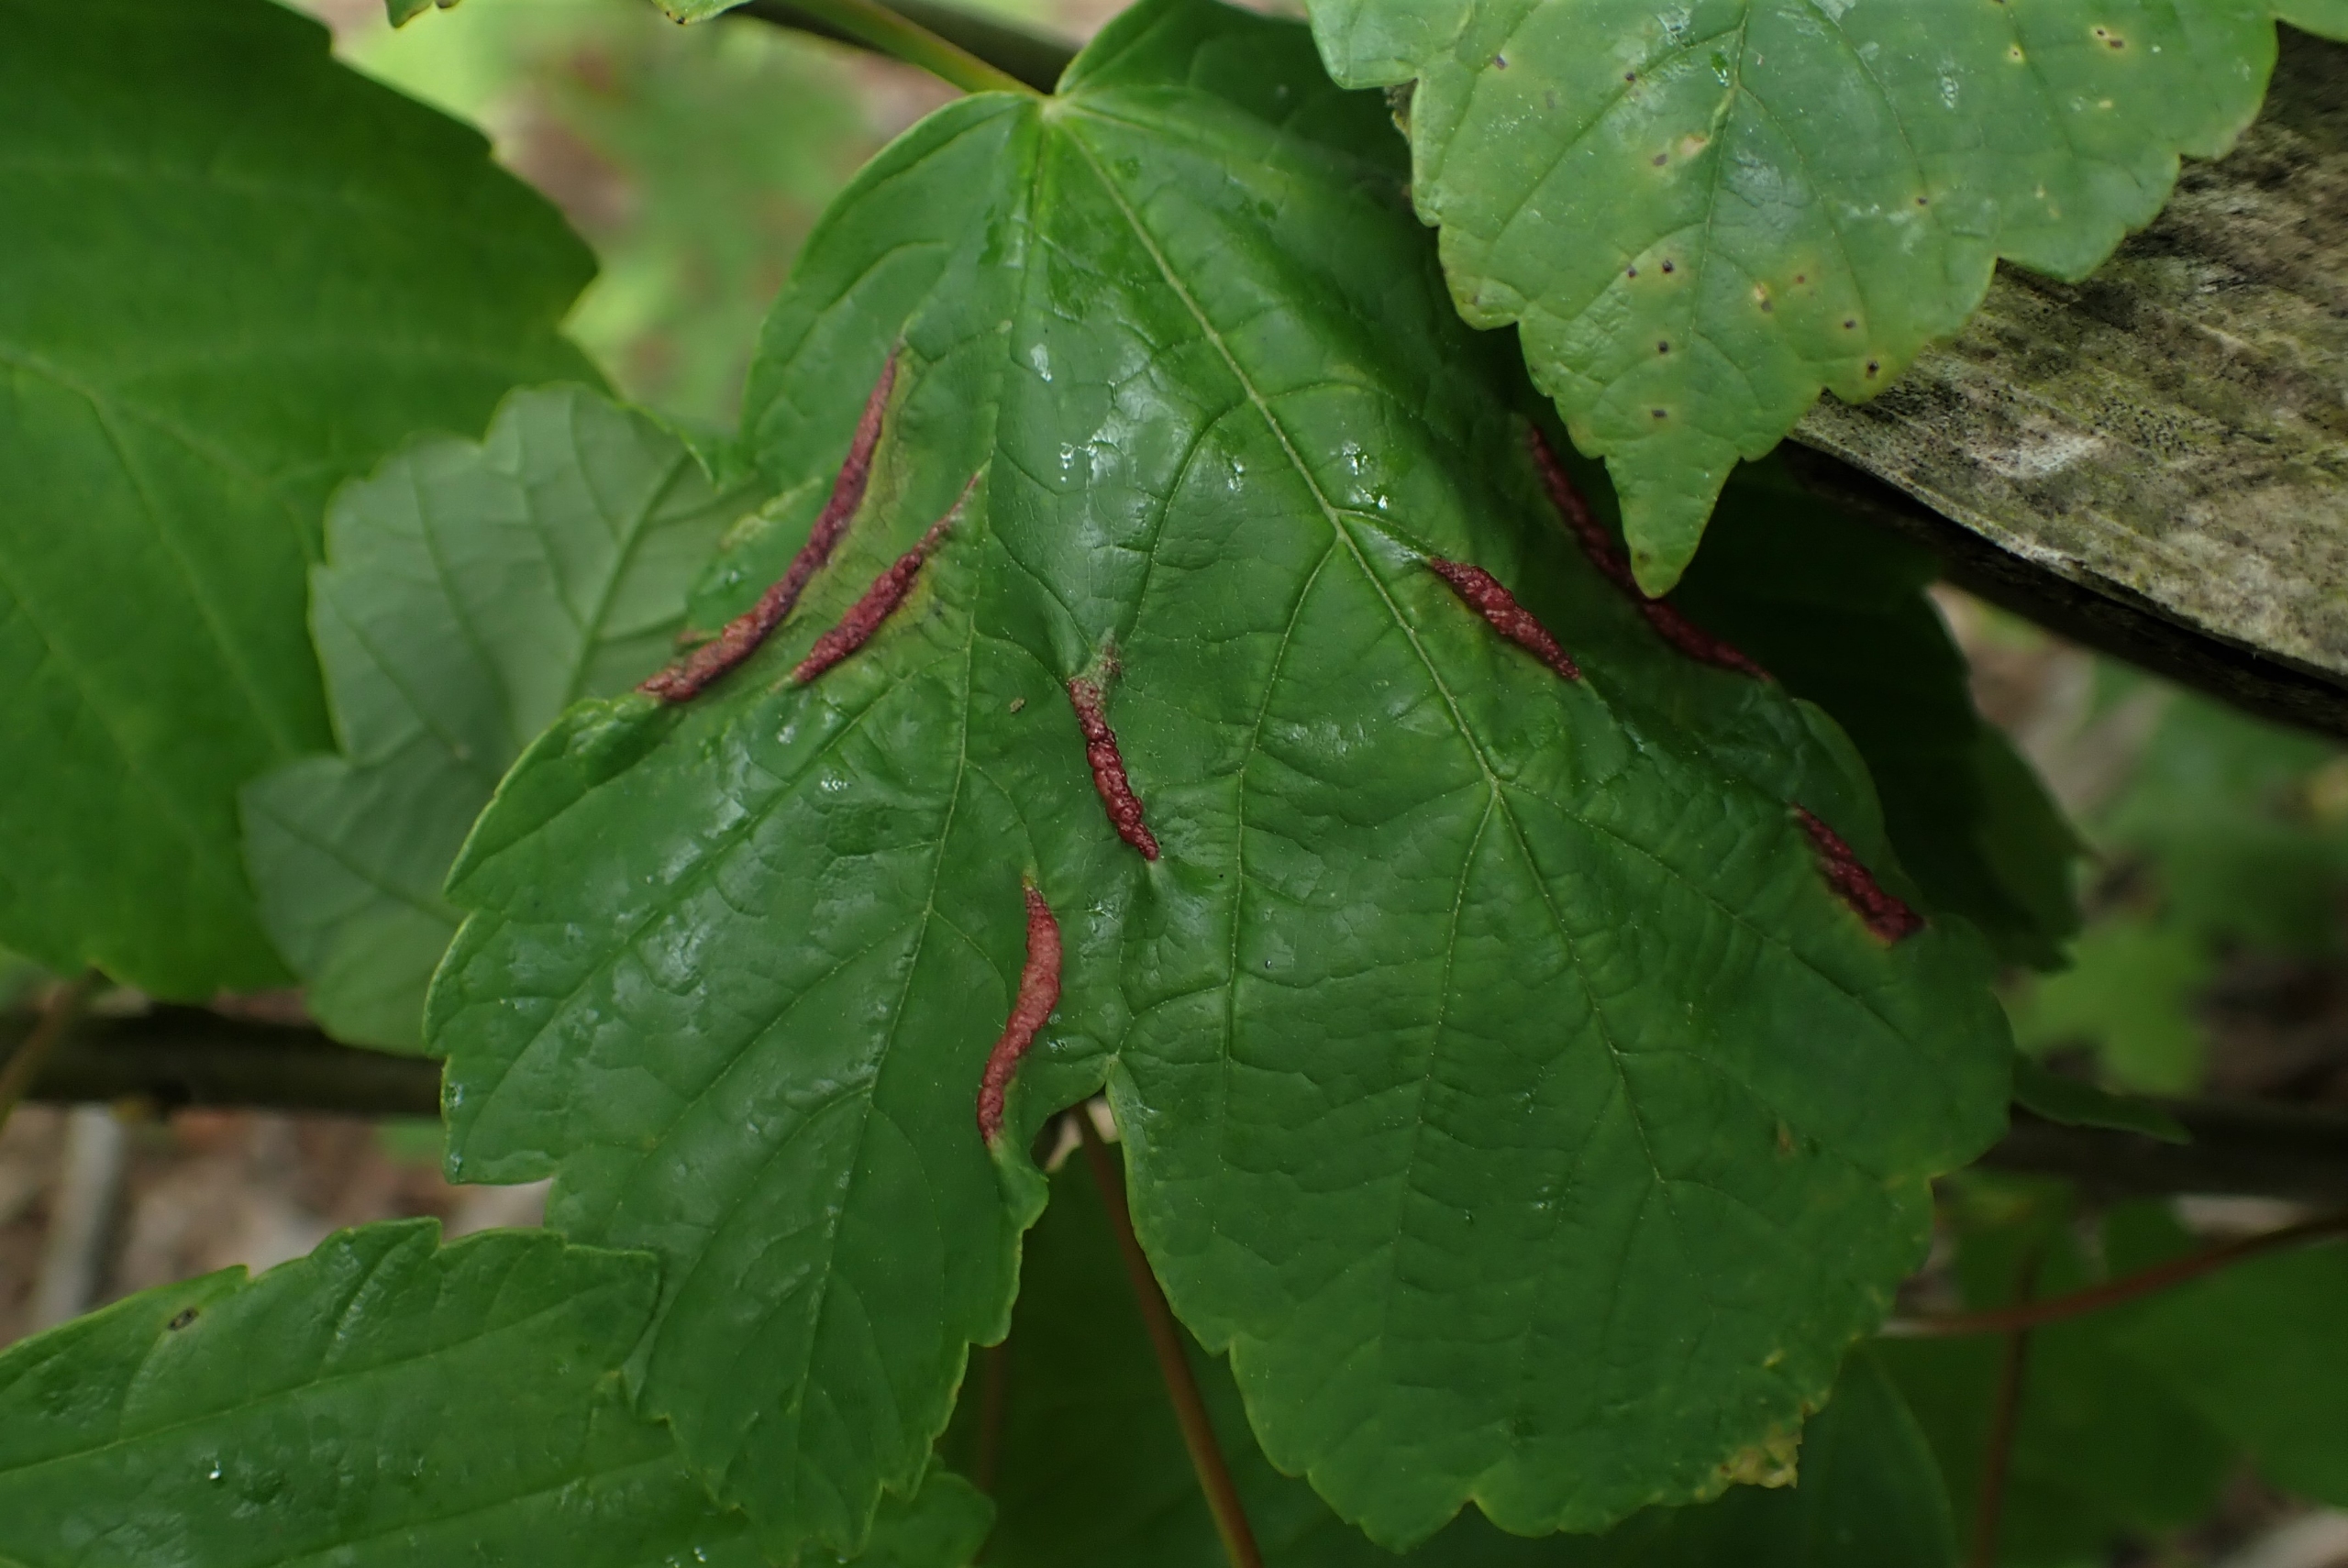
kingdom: Animalia
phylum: Arthropoda
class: Insecta
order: Diptera
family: Cecidomyiidae
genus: Contarinia
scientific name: Contarinia acerplicans
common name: Ahornvulstgalmyg
